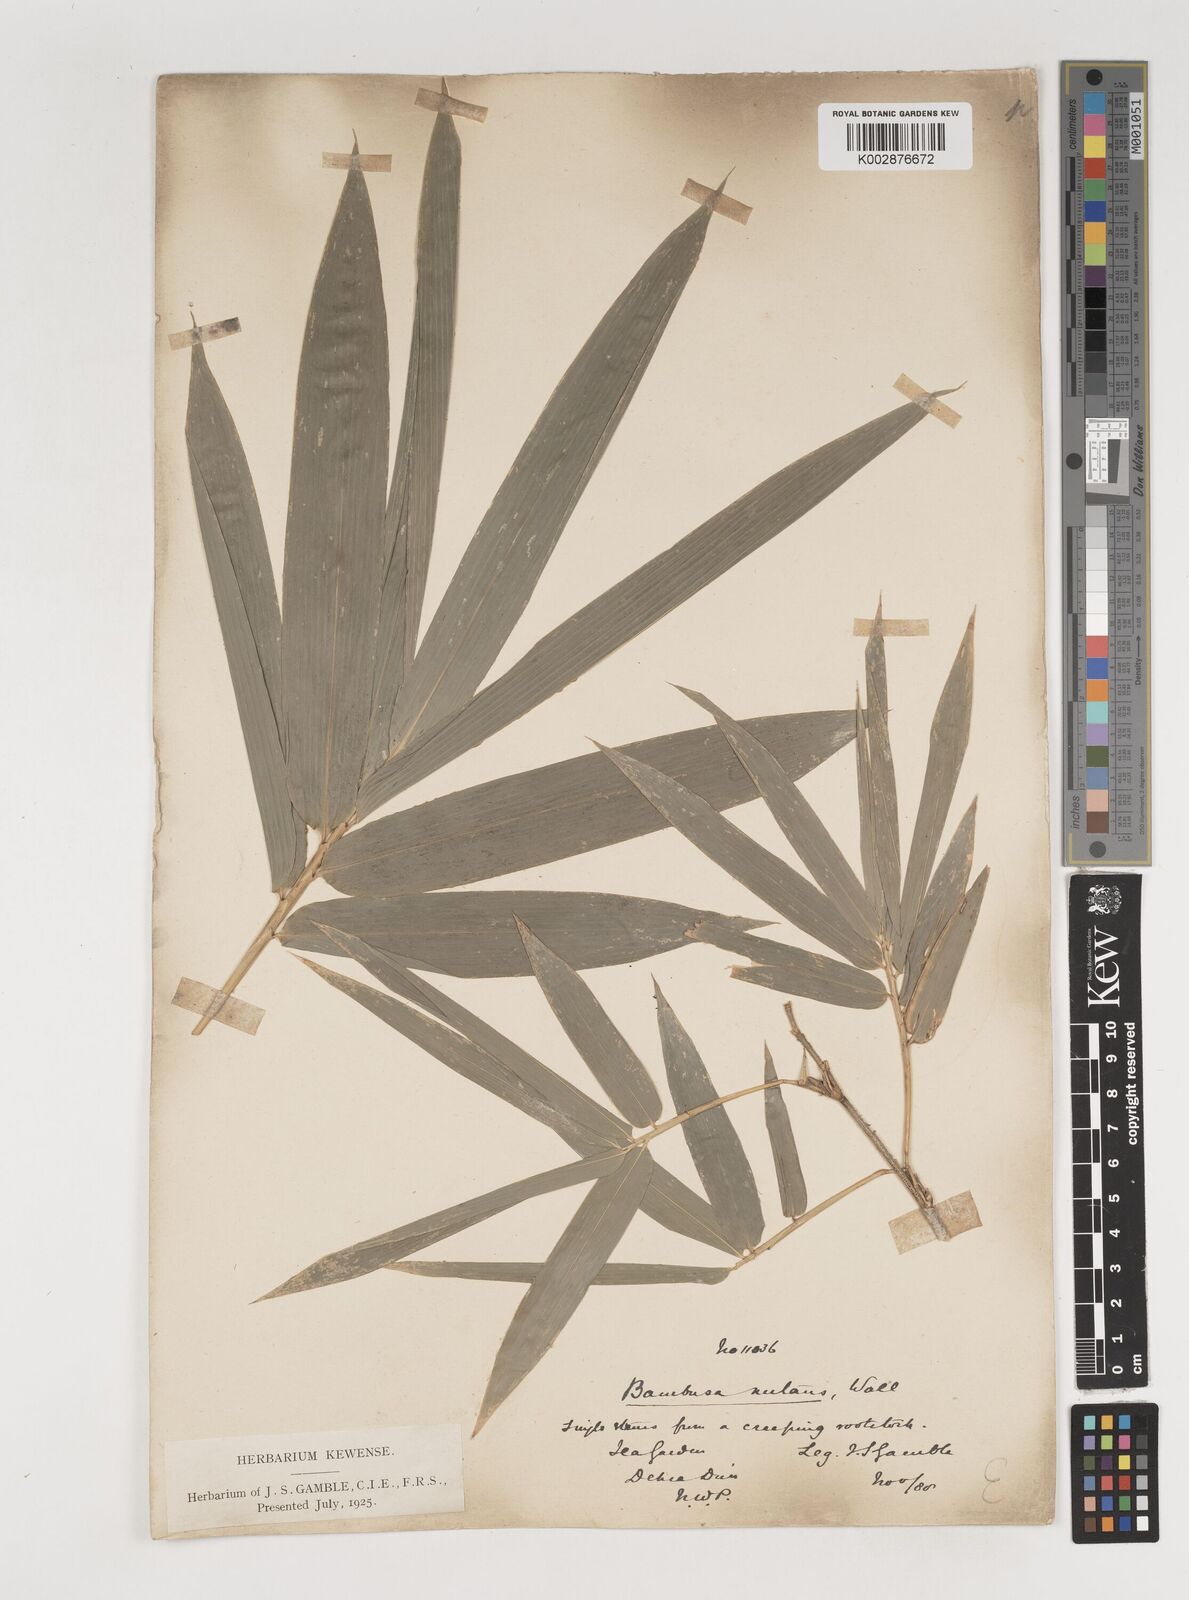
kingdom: Plantae
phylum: Tracheophyta
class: Liliopsida
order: Poales
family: Poaceae
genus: Bambusa
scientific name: Bambusa nutans
